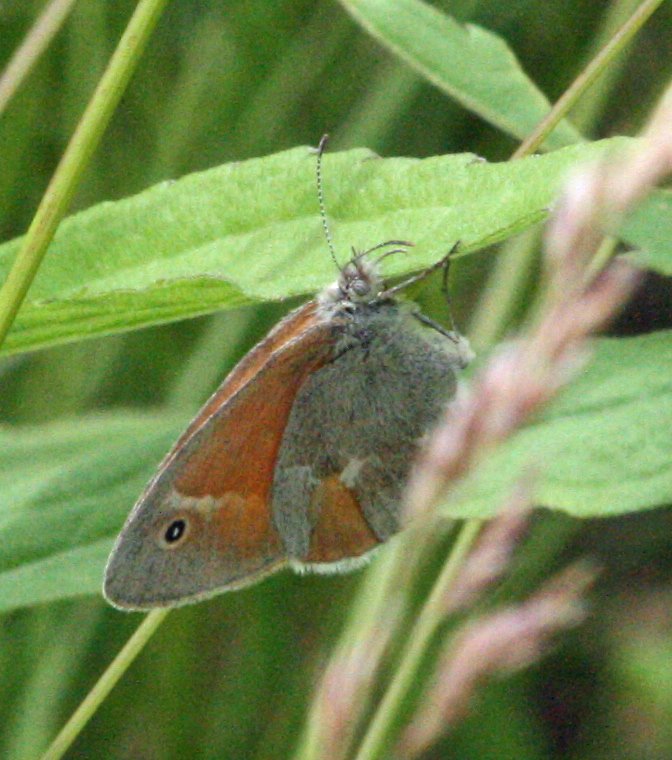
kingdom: Animalia
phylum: Arthropoda
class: Insecta
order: Lepidoptera
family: Nymphalidae
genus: Coenonympha
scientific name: Coenonympha tullia
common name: Large Heath
